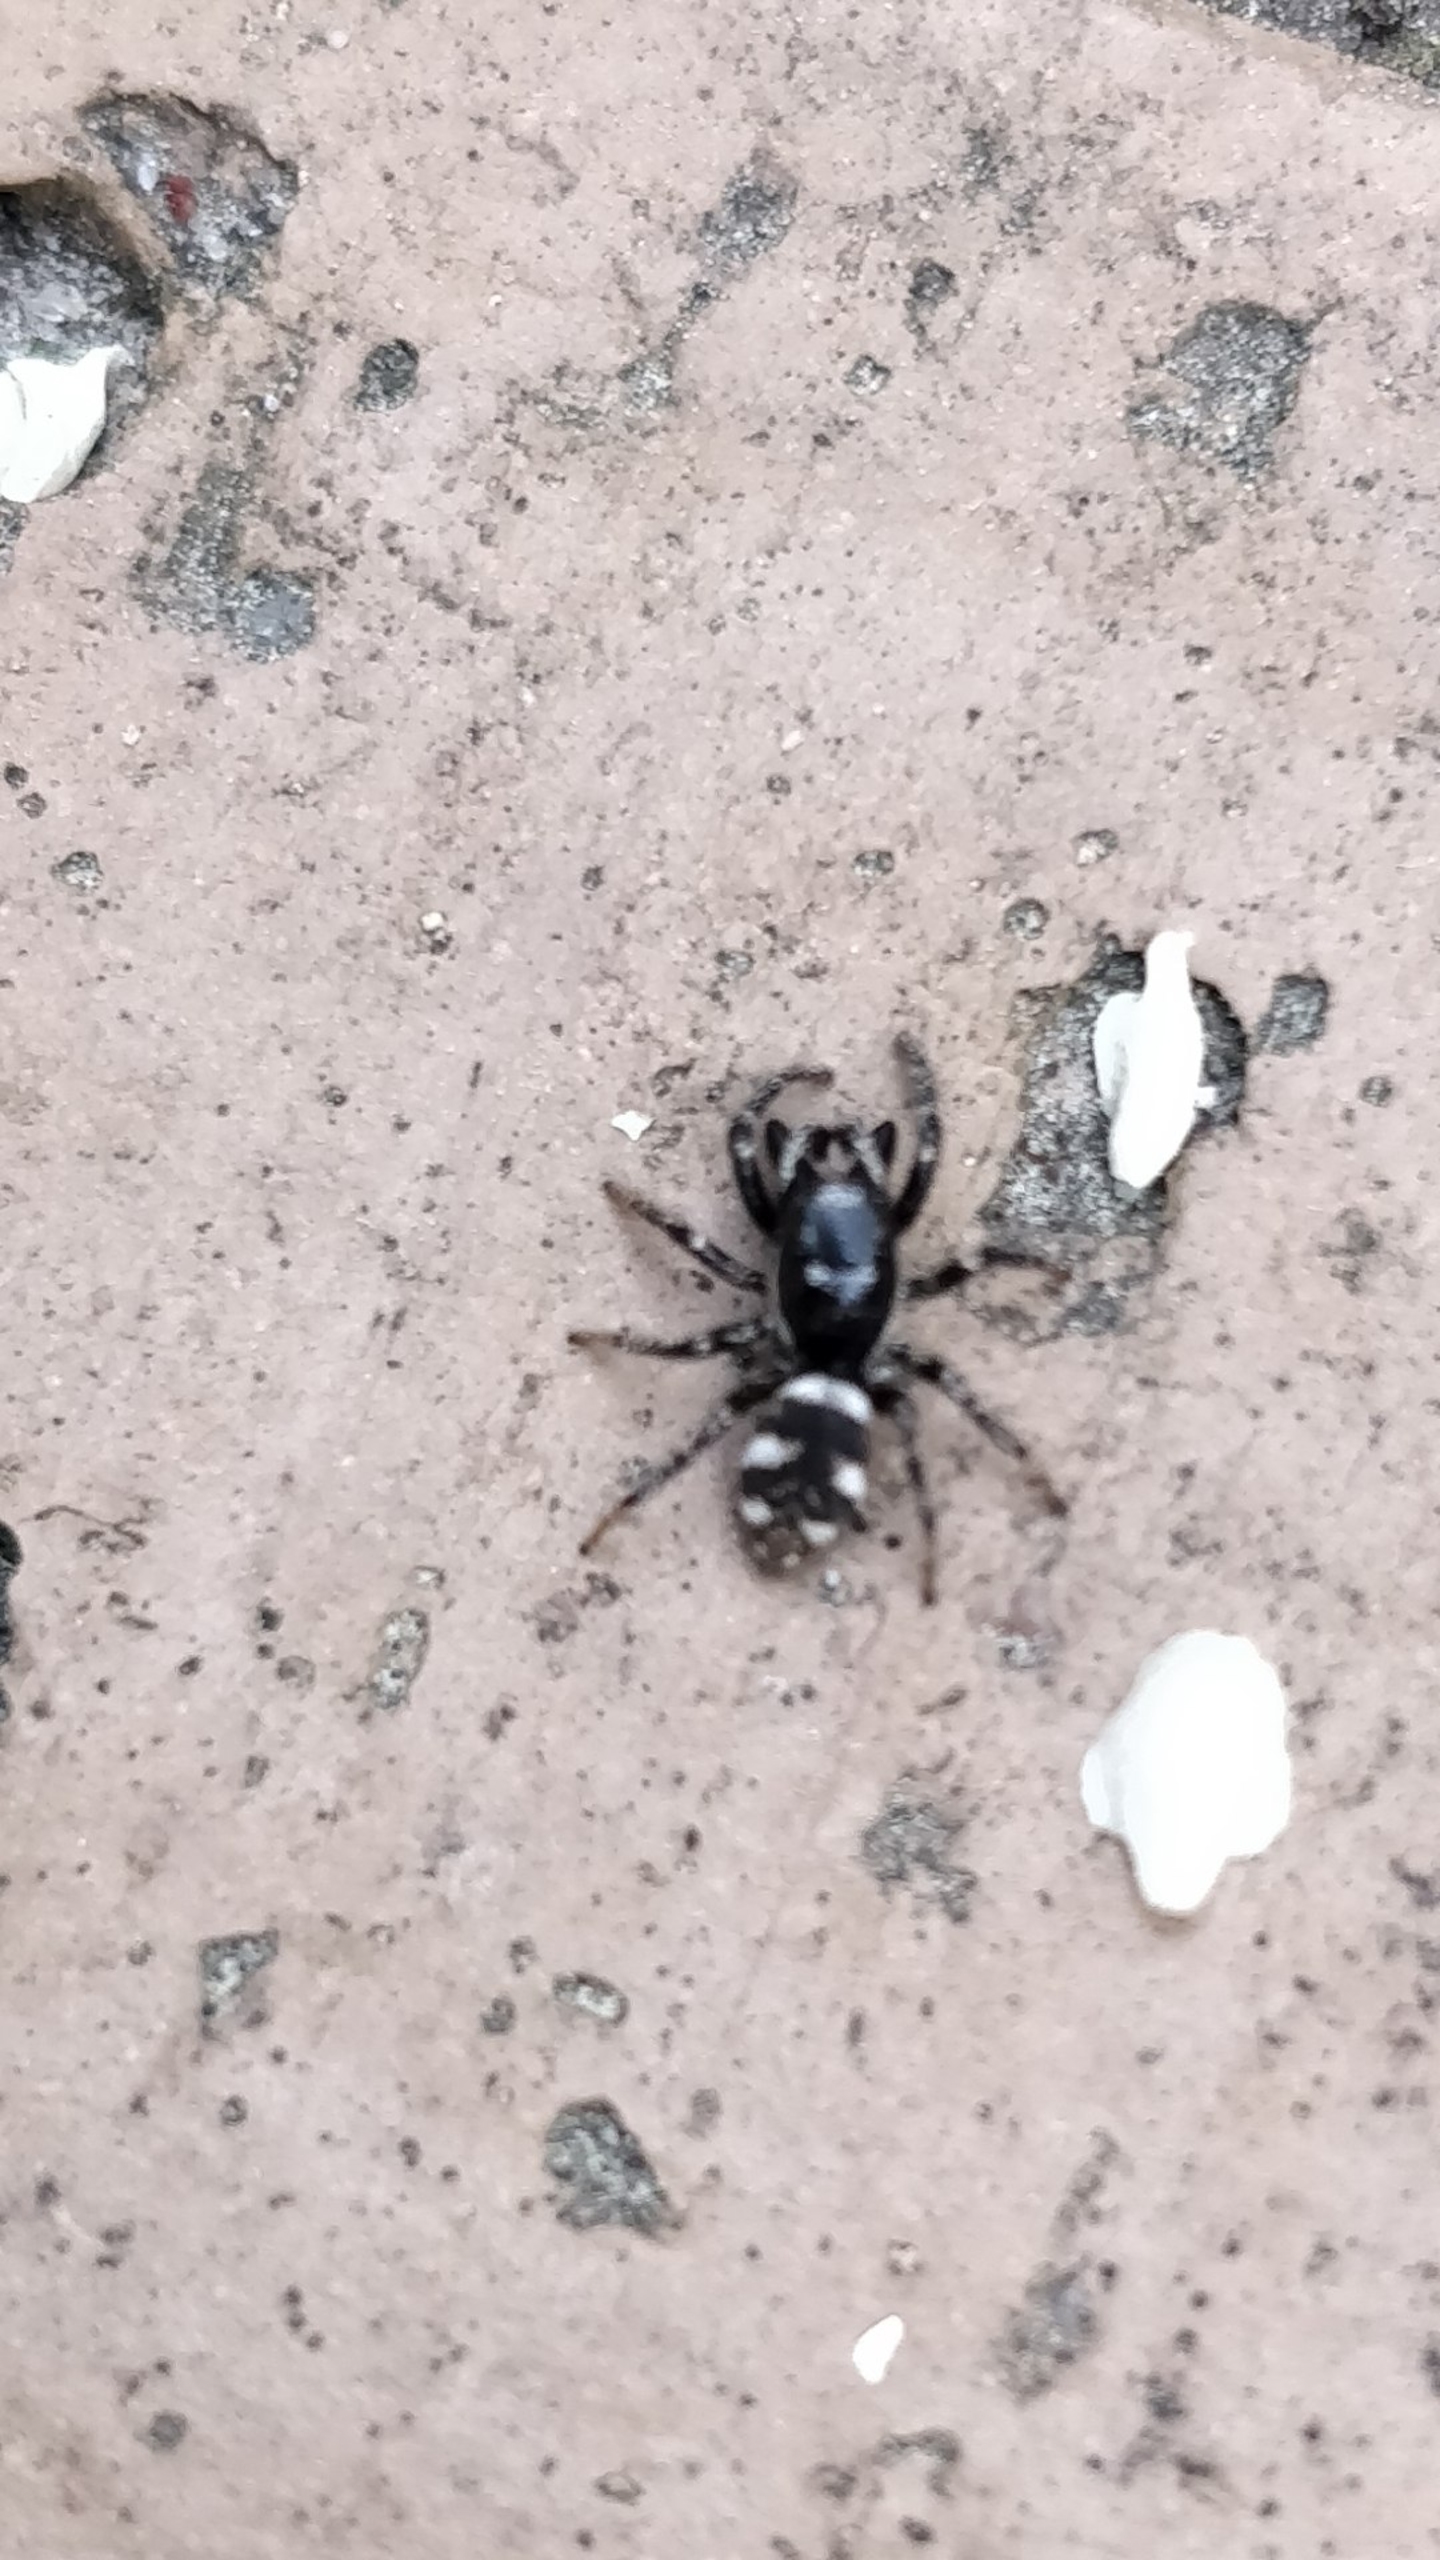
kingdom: Animalia
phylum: Arthropoda
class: Arachnida
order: Araneae
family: Salticidae
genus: Salticus
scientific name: Salticus scenicus
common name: Almindelig zebraedderkop
